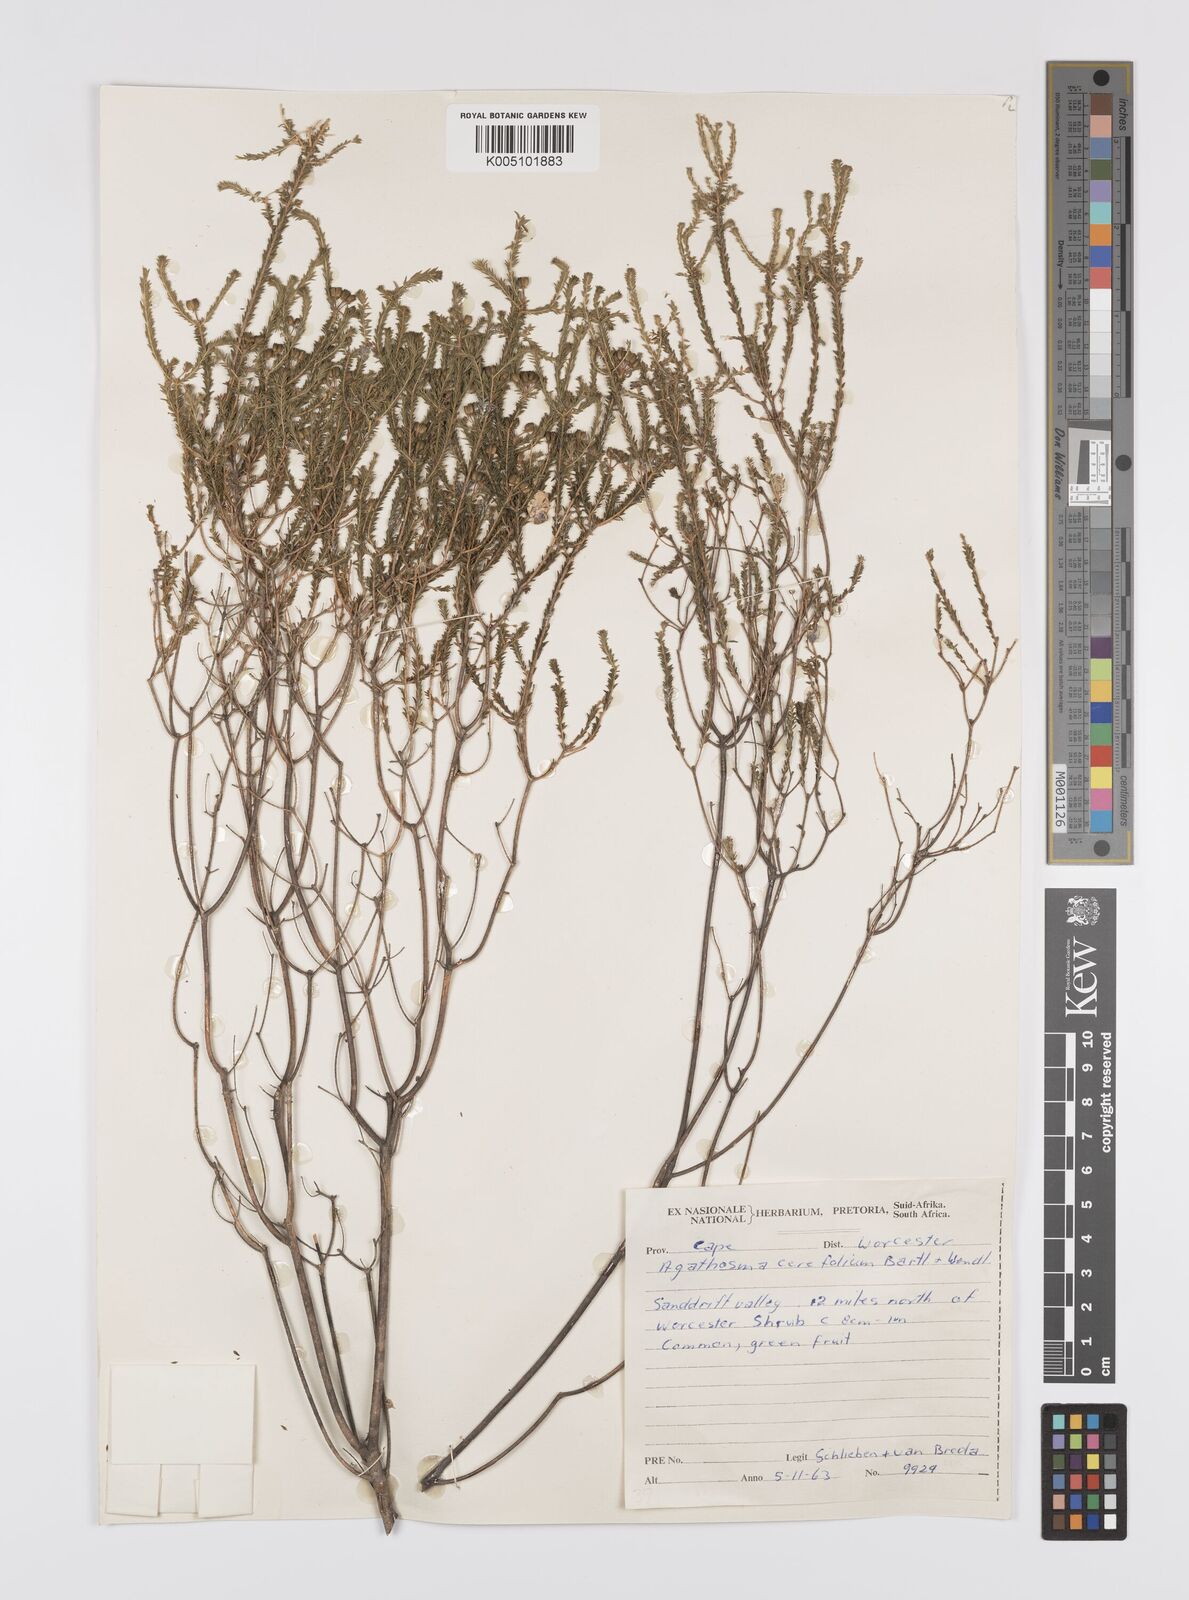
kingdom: Plantae
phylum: Tracheophyta
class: Magnoliopsida
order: Sapindales
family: Rutaceae
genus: Agathosma
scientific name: Agathosma cerefolia
